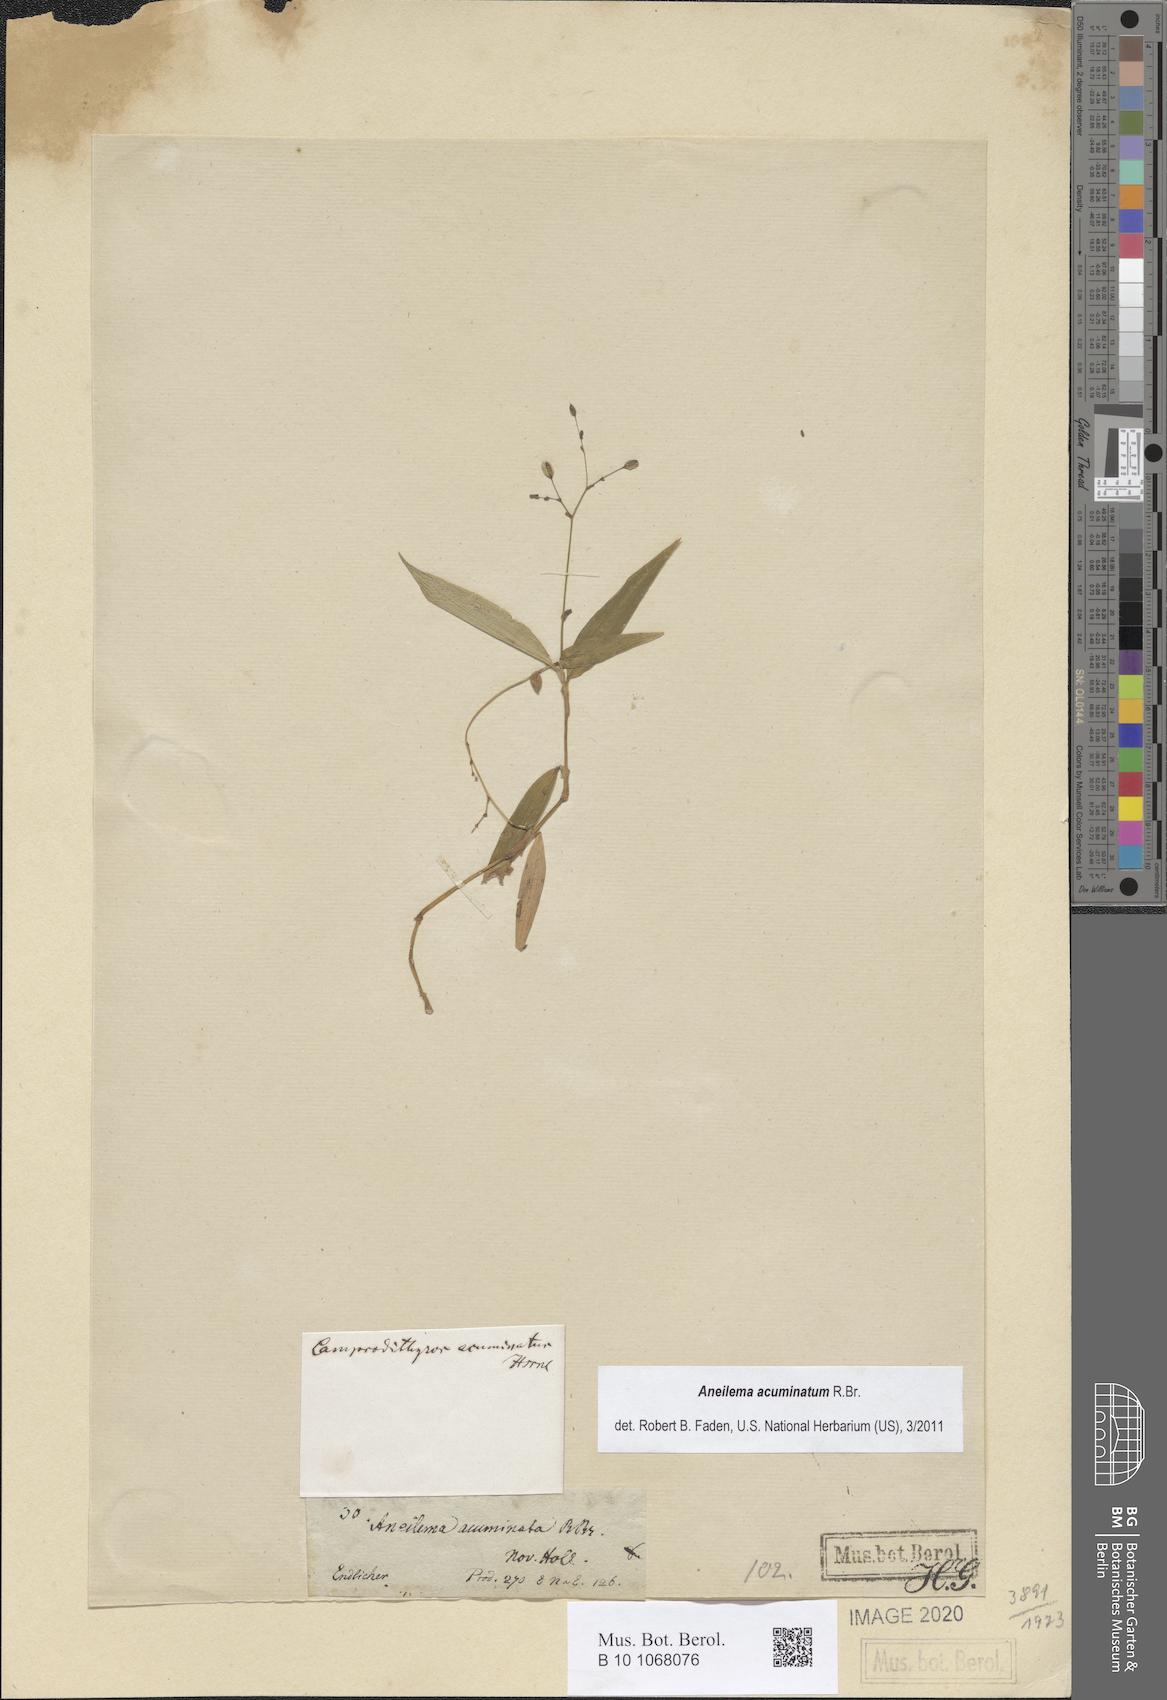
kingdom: Plantae
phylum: Tracheophyta
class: Liliopsida
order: Commelinales
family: Commelinaceae
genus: Aneilema
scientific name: Aneilema acuminatum
